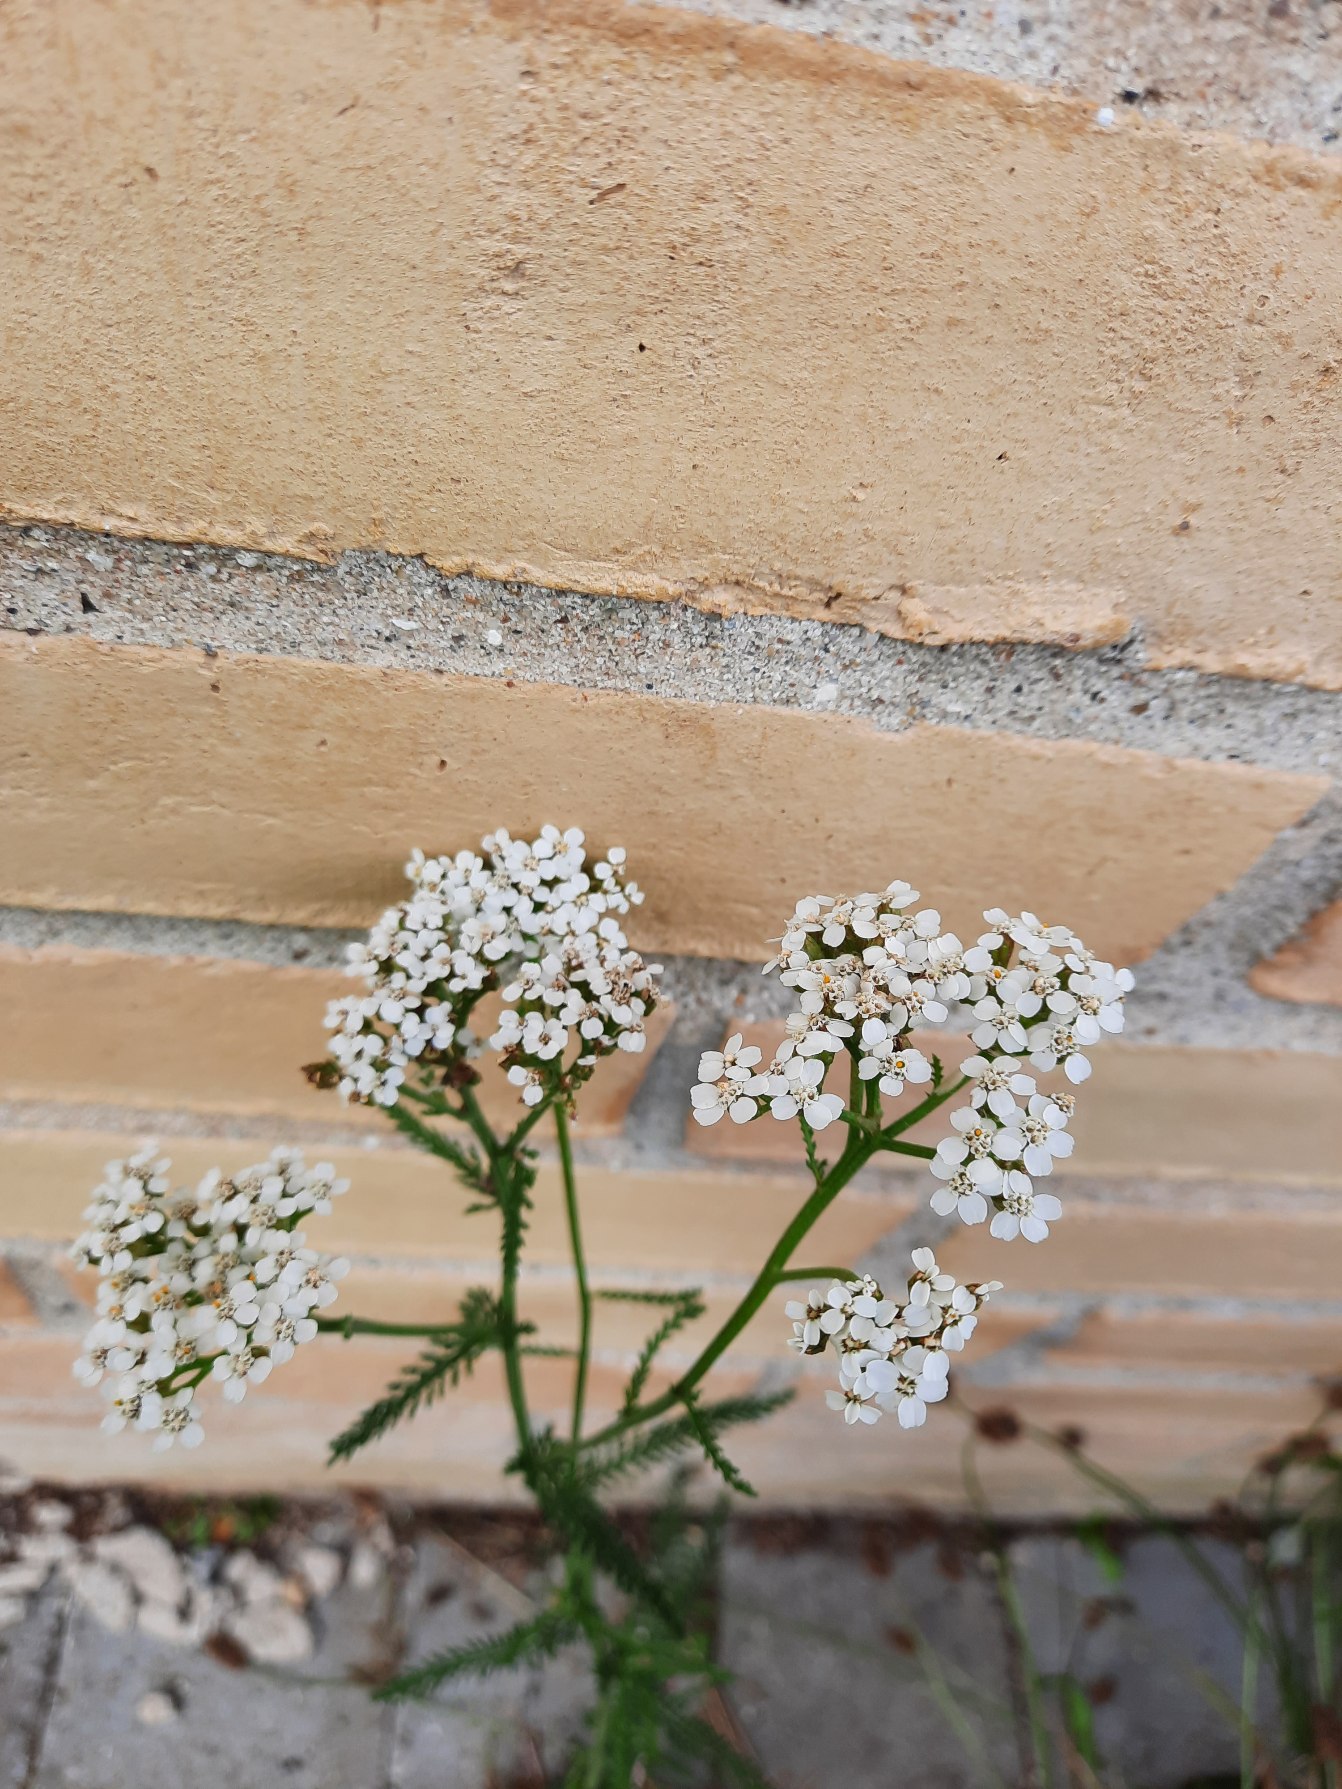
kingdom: Plantae
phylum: Tracheophyta
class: Magnoliopsida
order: Asterales
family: Asteraceae
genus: Achillea
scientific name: Achillea millefolium
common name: Almindelig røllike
